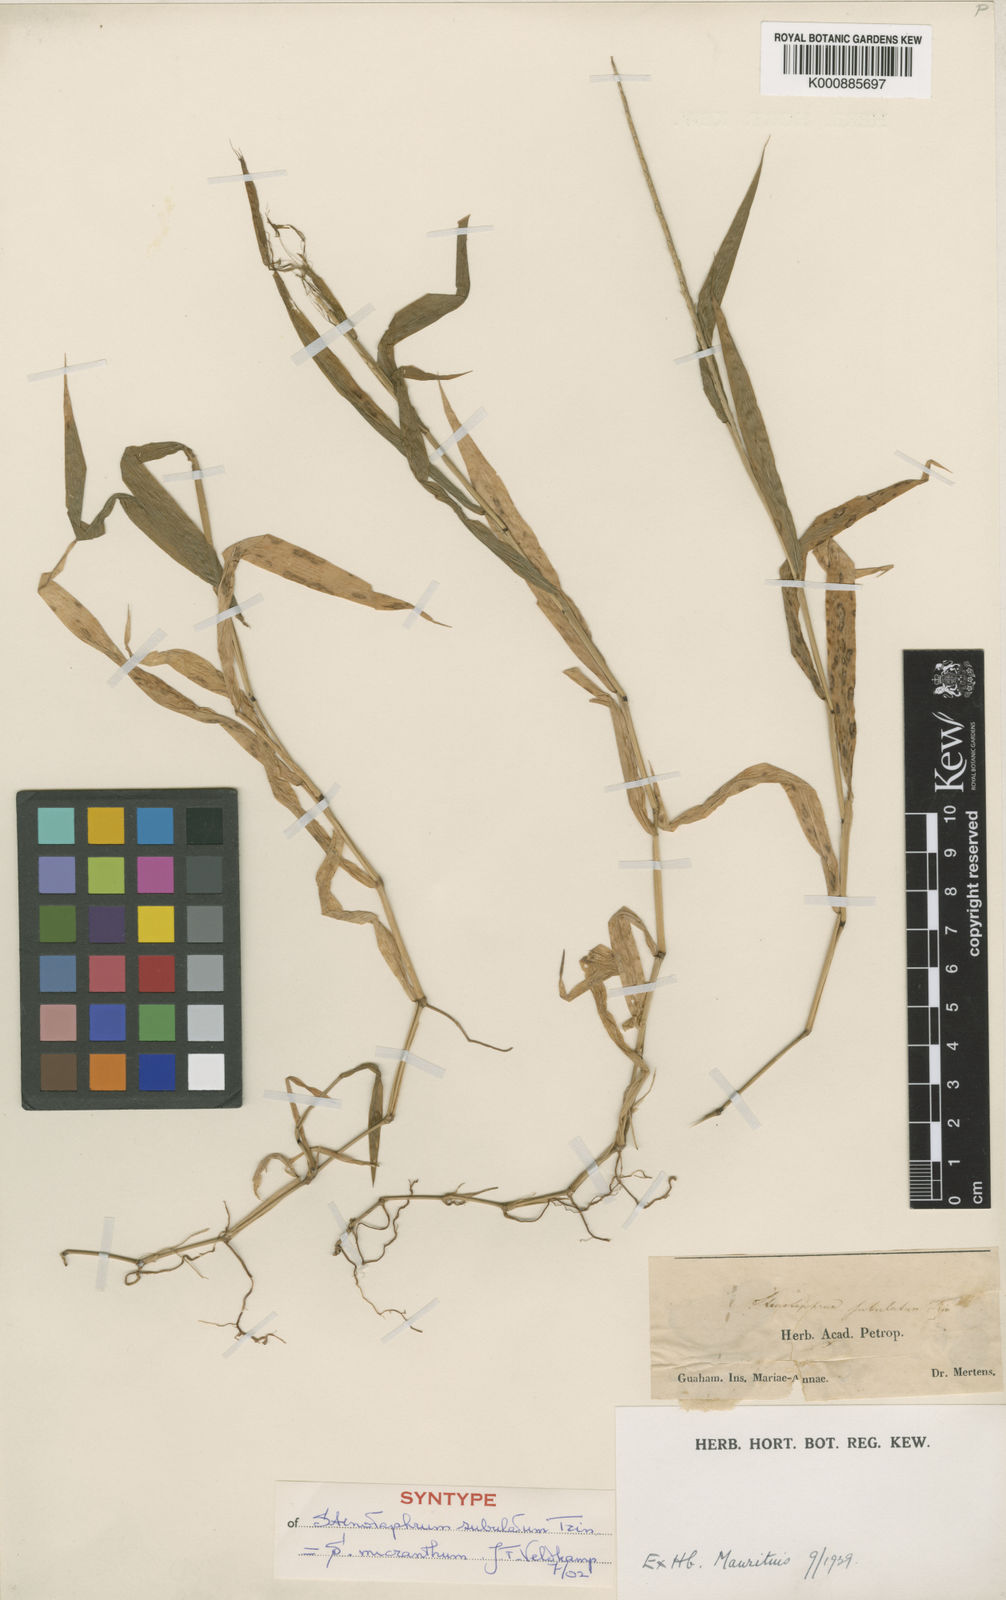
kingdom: Plantae
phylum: Tracheophyta
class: Liliopsida
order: Poales
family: Poaceae
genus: Stenotaphrum
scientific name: Stenotaphrum micranthum
